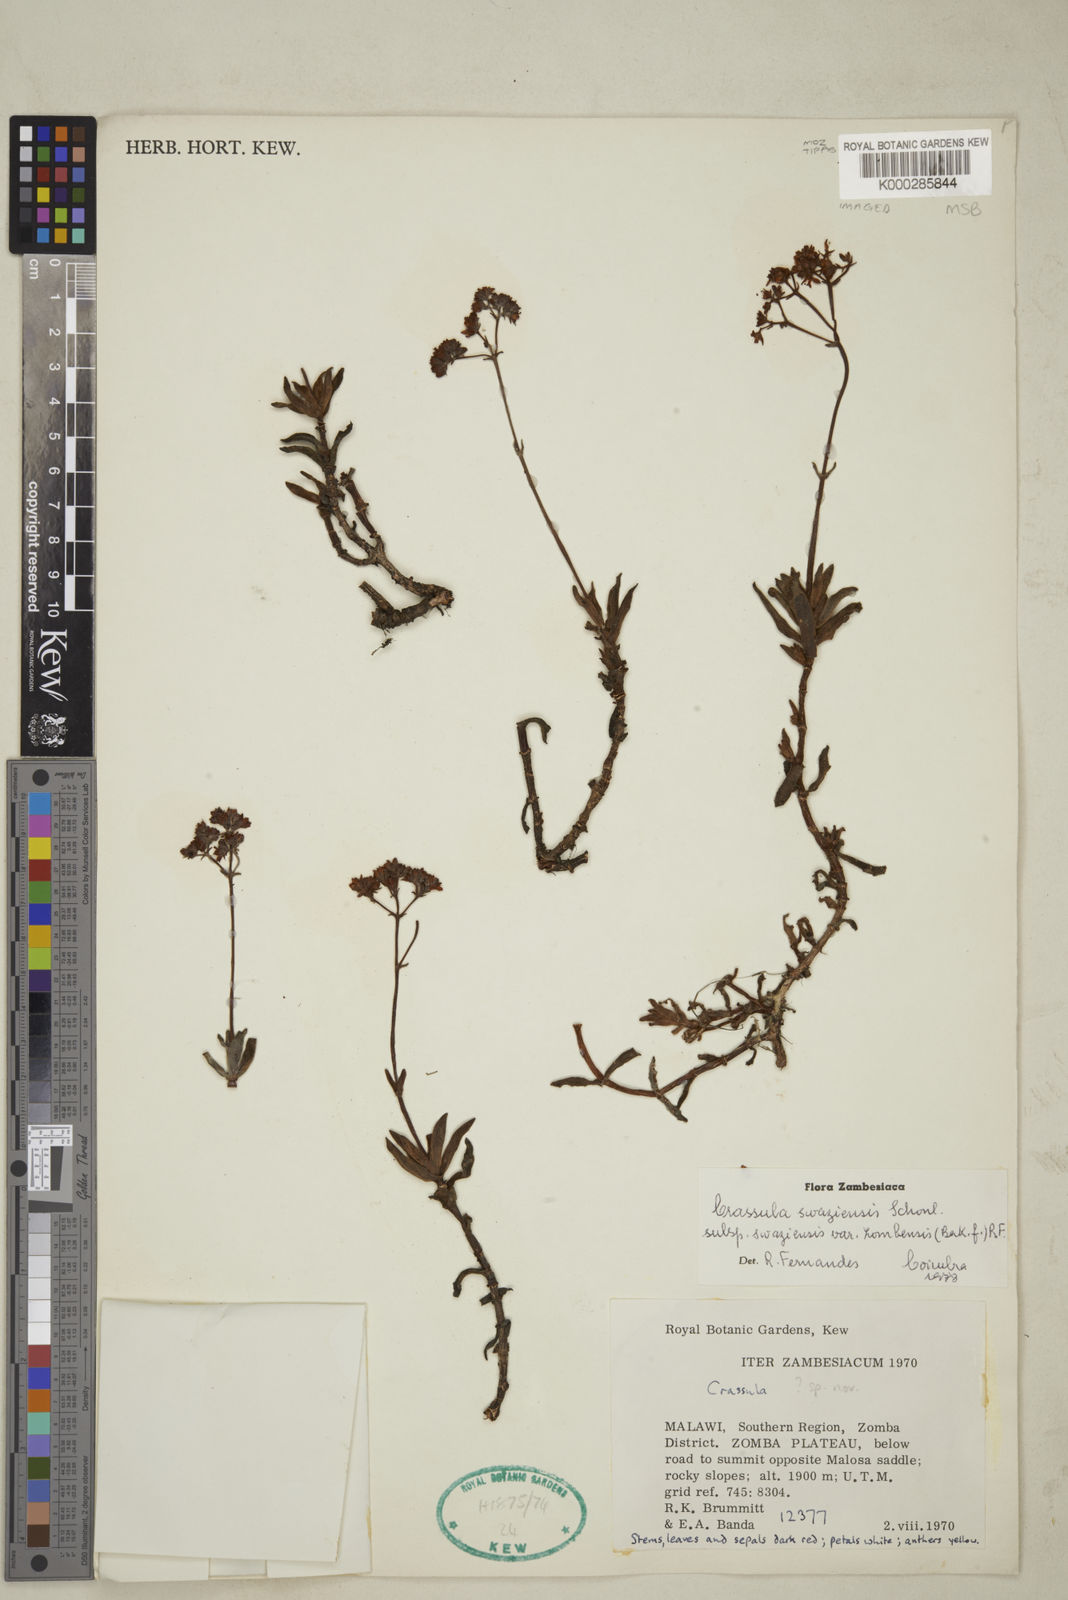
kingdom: Plantae
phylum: Tracheophyta
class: Magnoliopsida
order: Saxifragales
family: Crassulaceae
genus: Crassula
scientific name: Crassula zombensis
